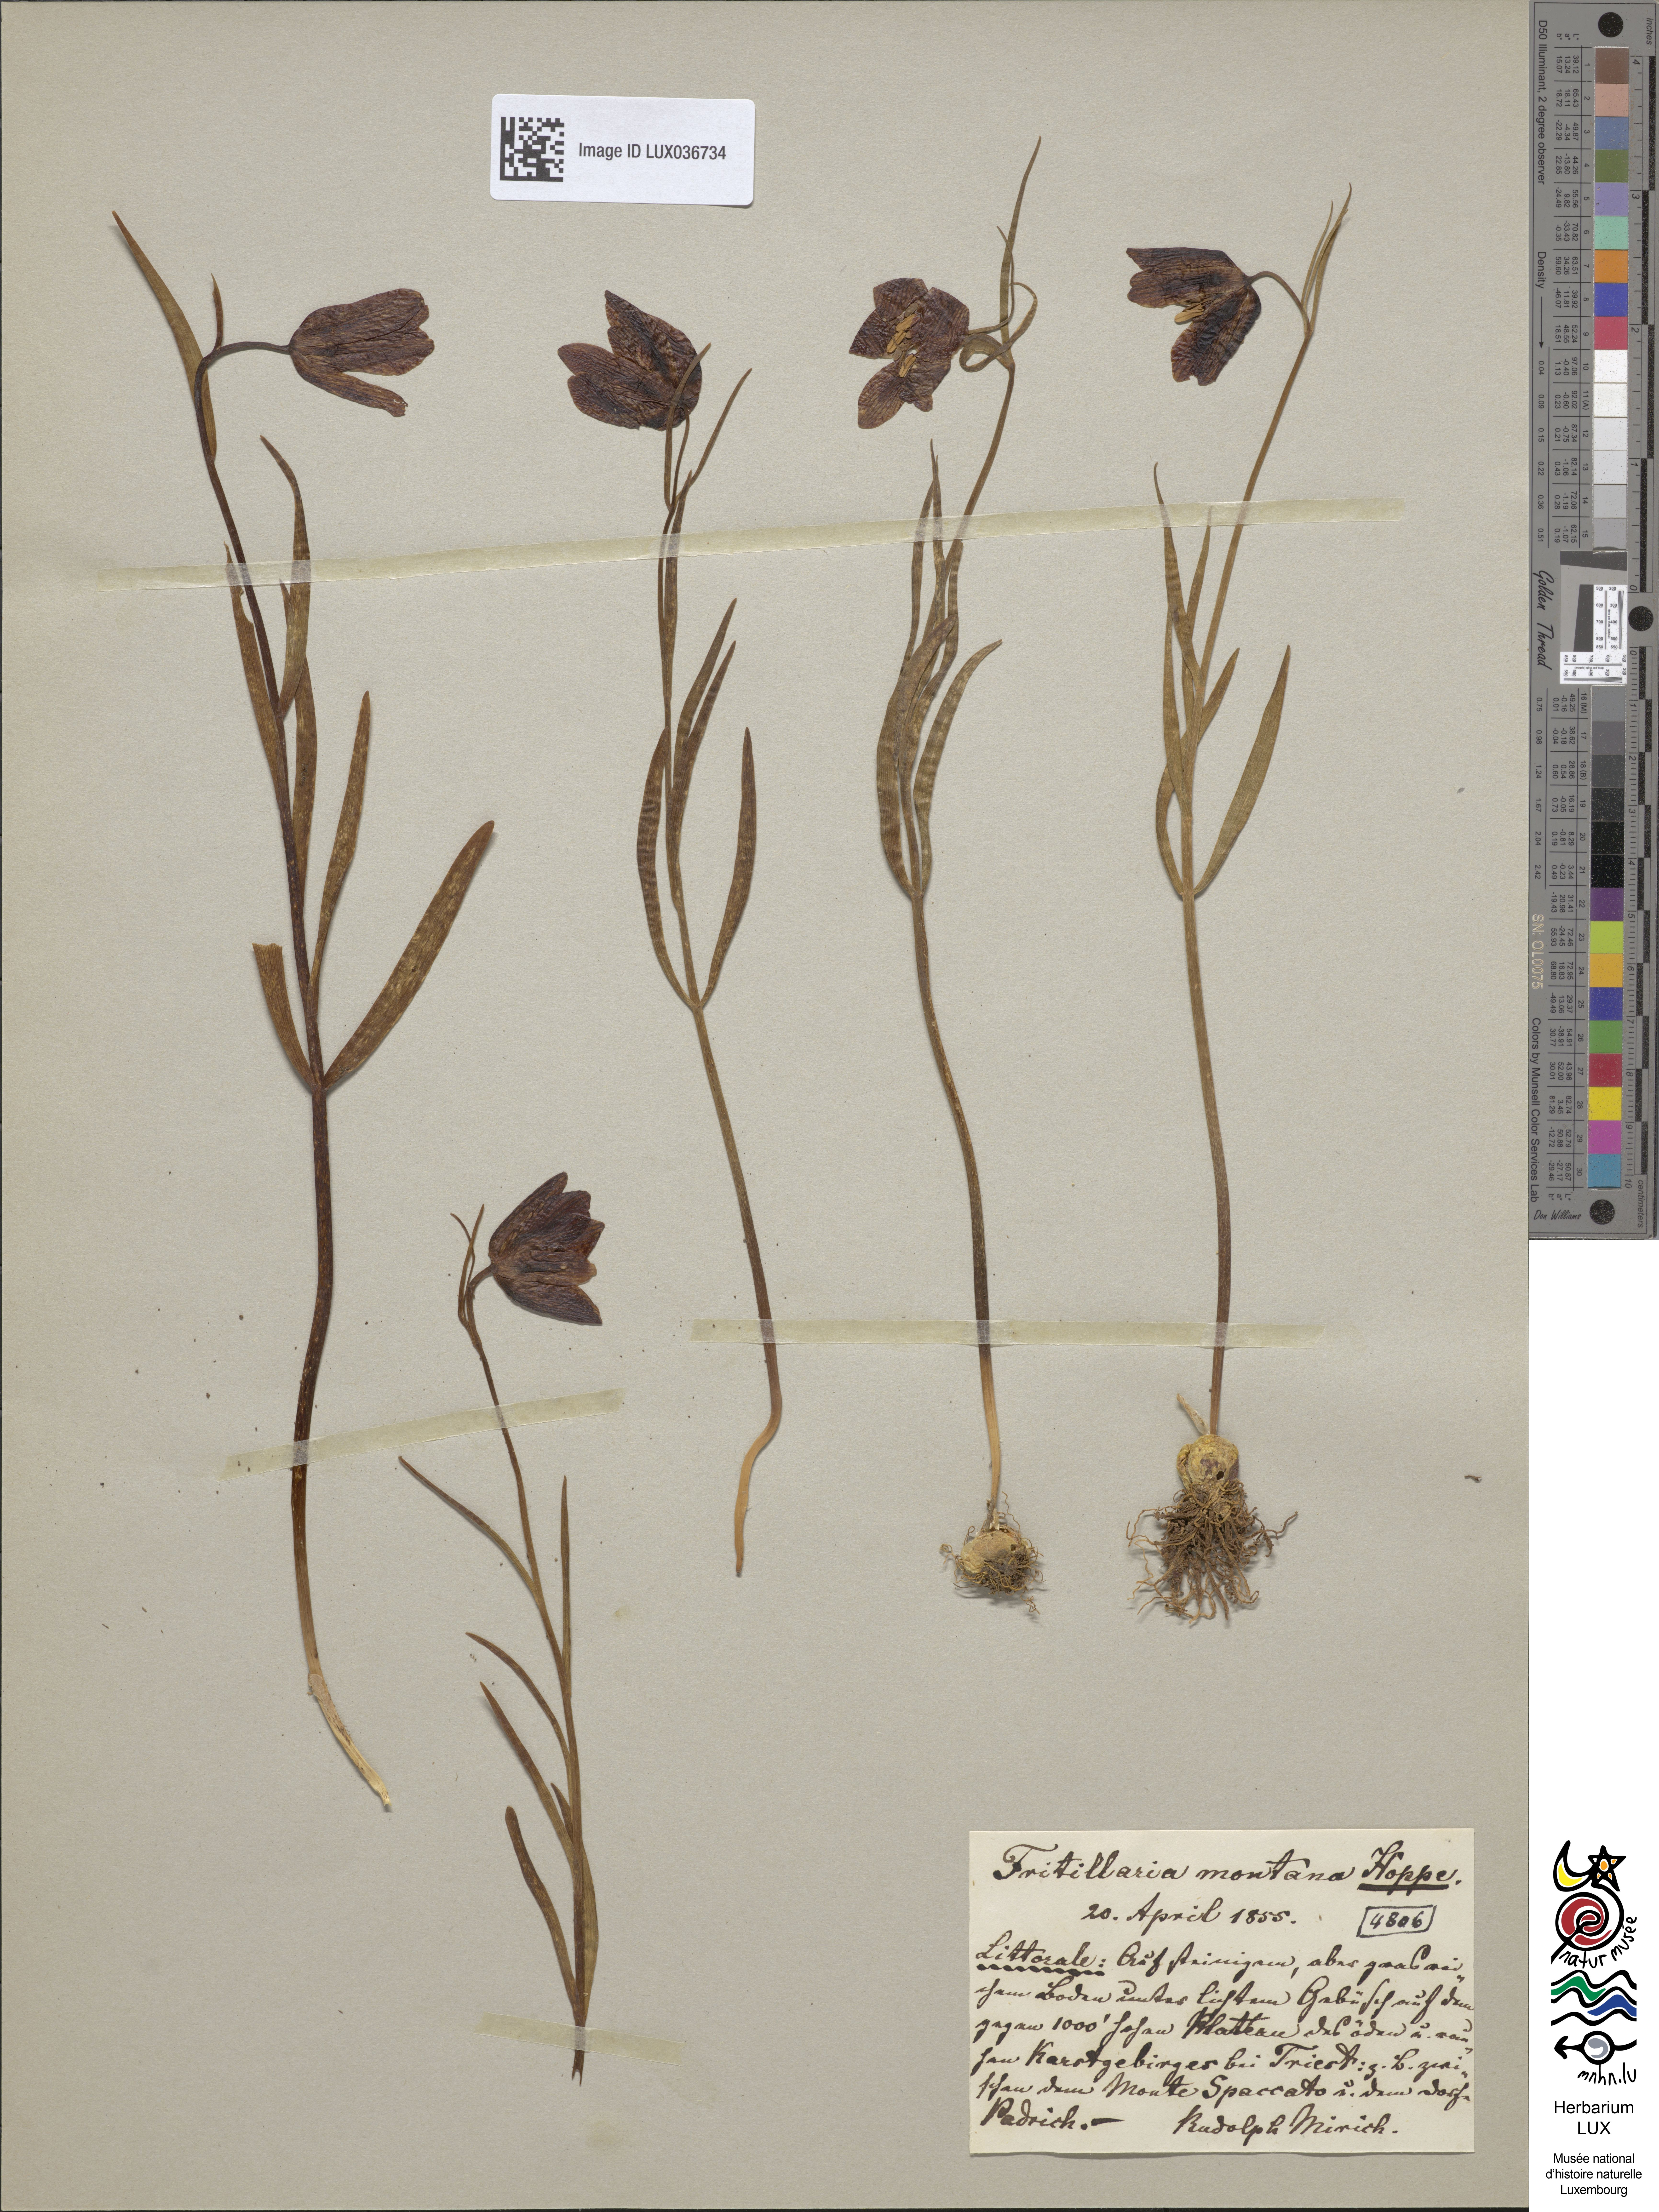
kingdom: Plantae
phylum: Tracheophyta
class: Liliopsida
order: Liliales
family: Liliaceae
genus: Fritillaria
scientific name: Fritillaria orientalis
